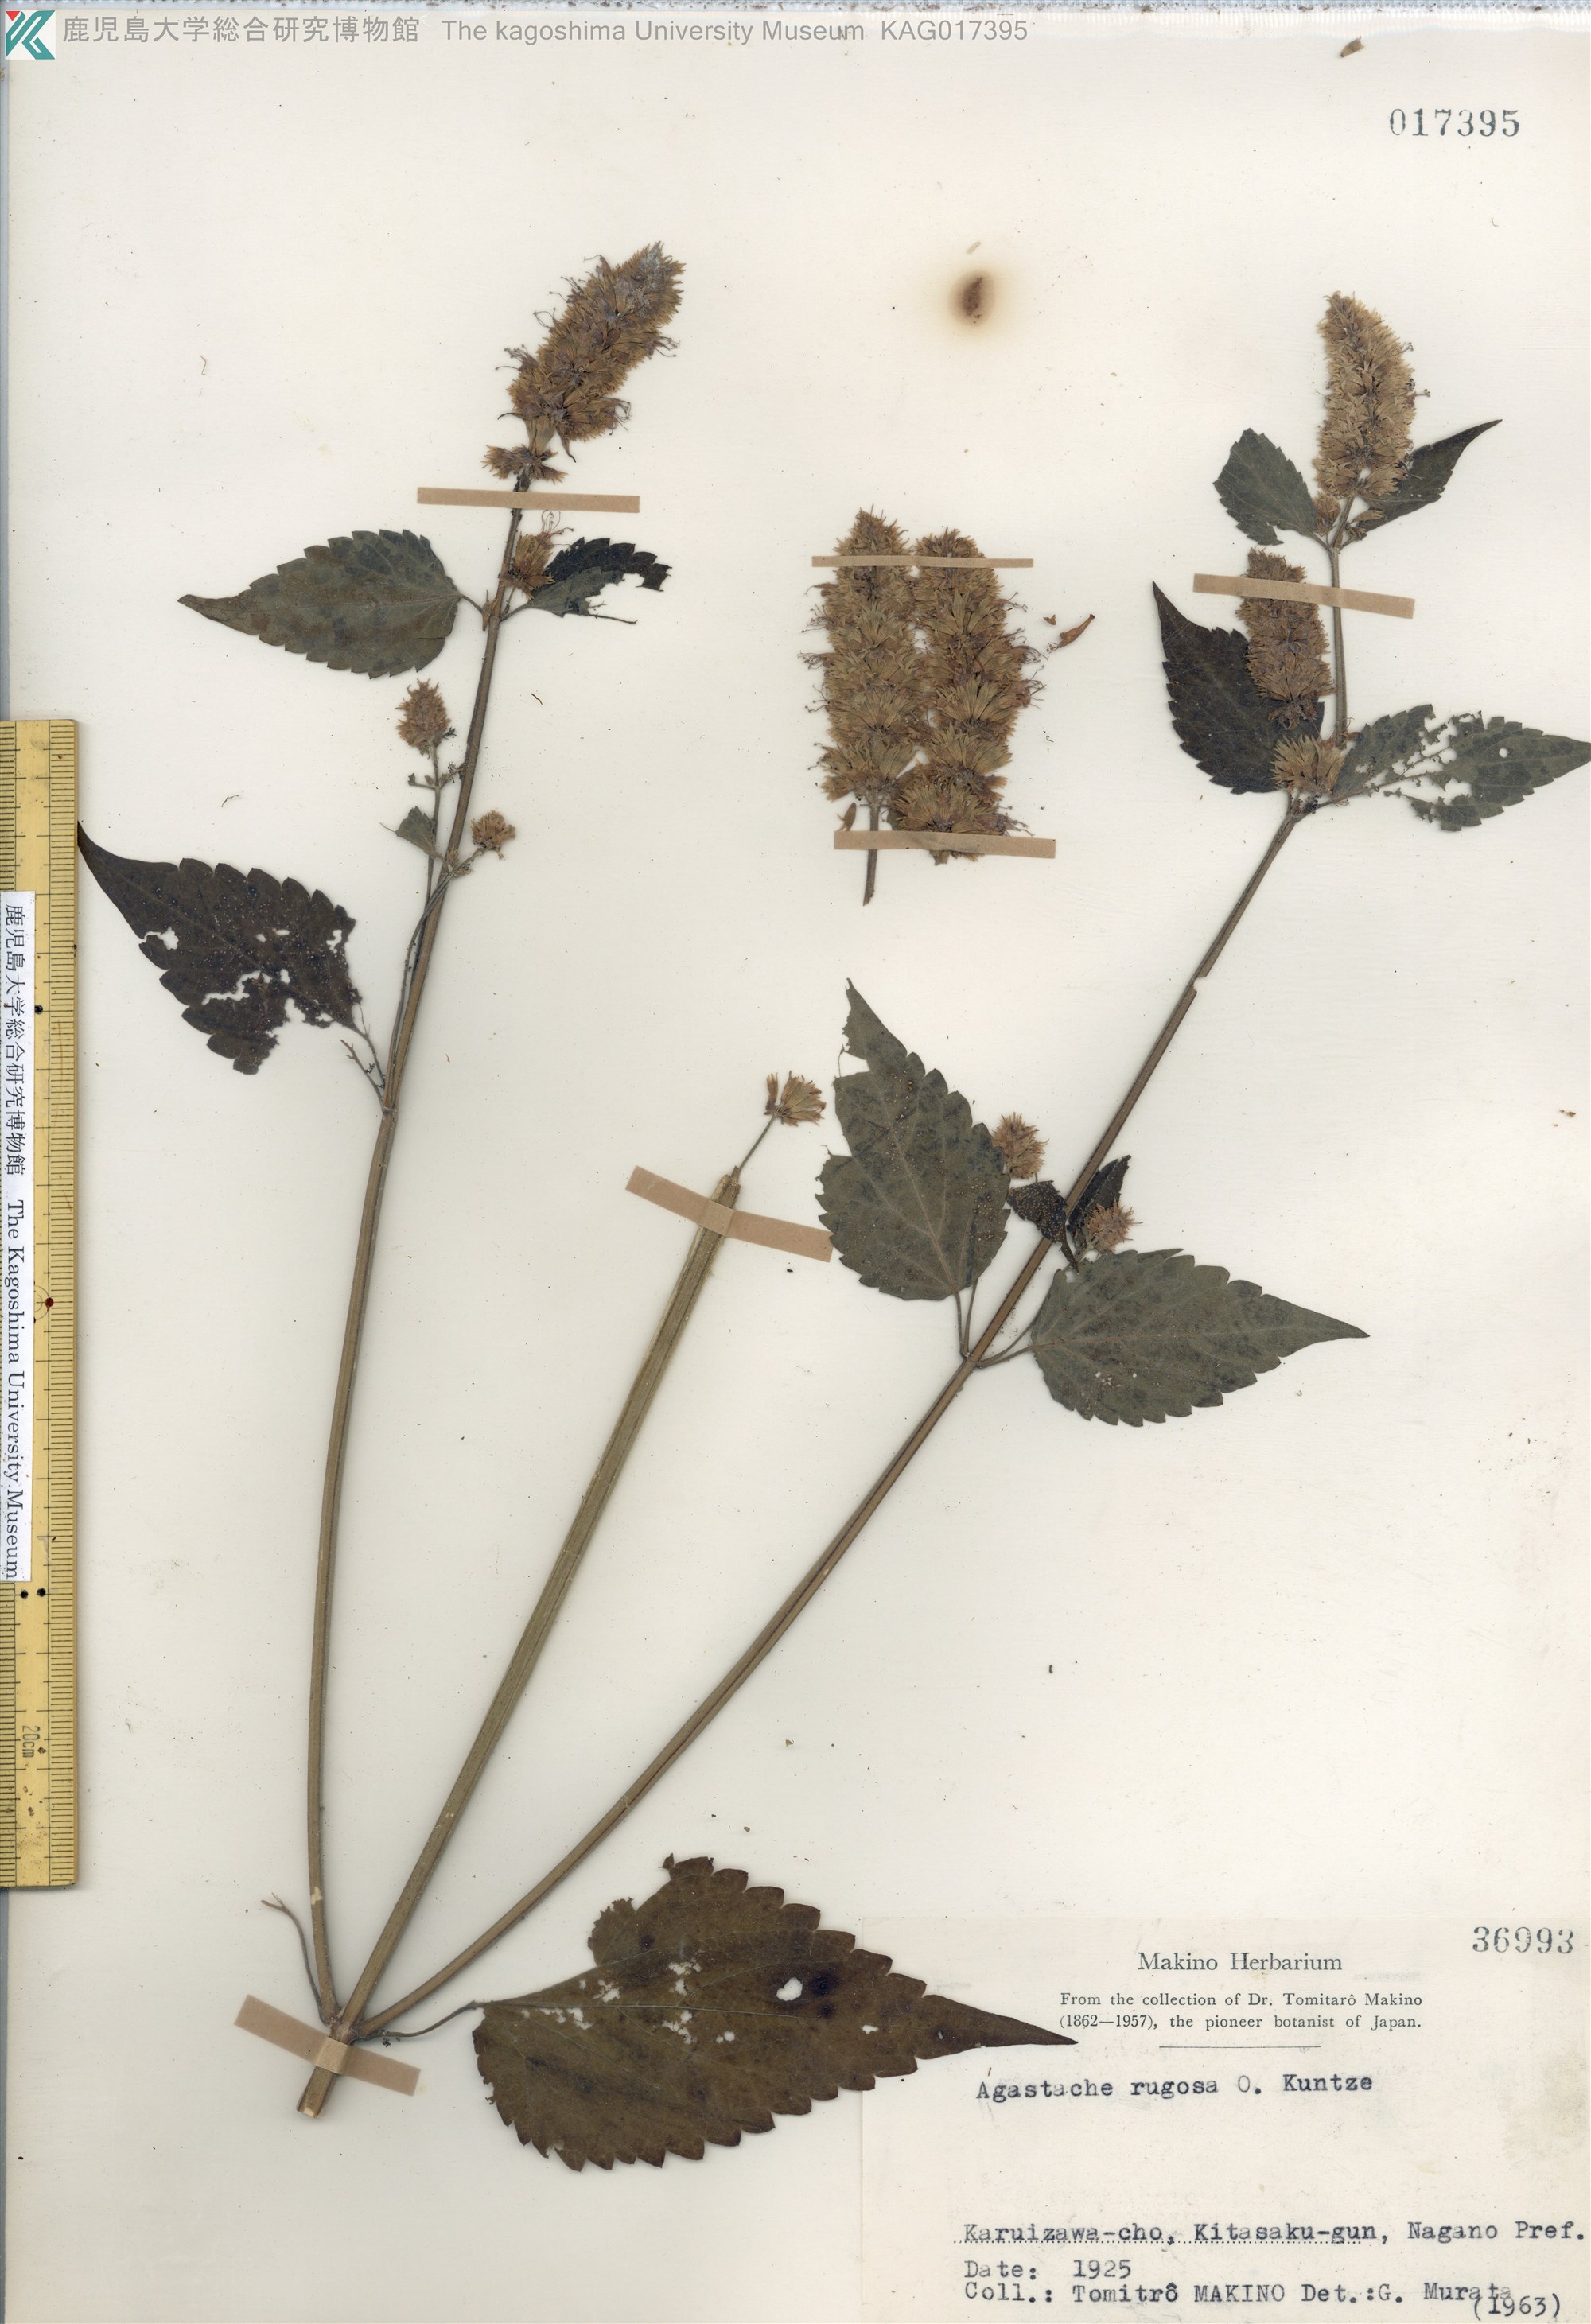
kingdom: Plantae
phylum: Tracheophyta
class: Magnoliopsida
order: Lamiales
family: Lamiaceae
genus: Agastache
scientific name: Agastache rugosa
